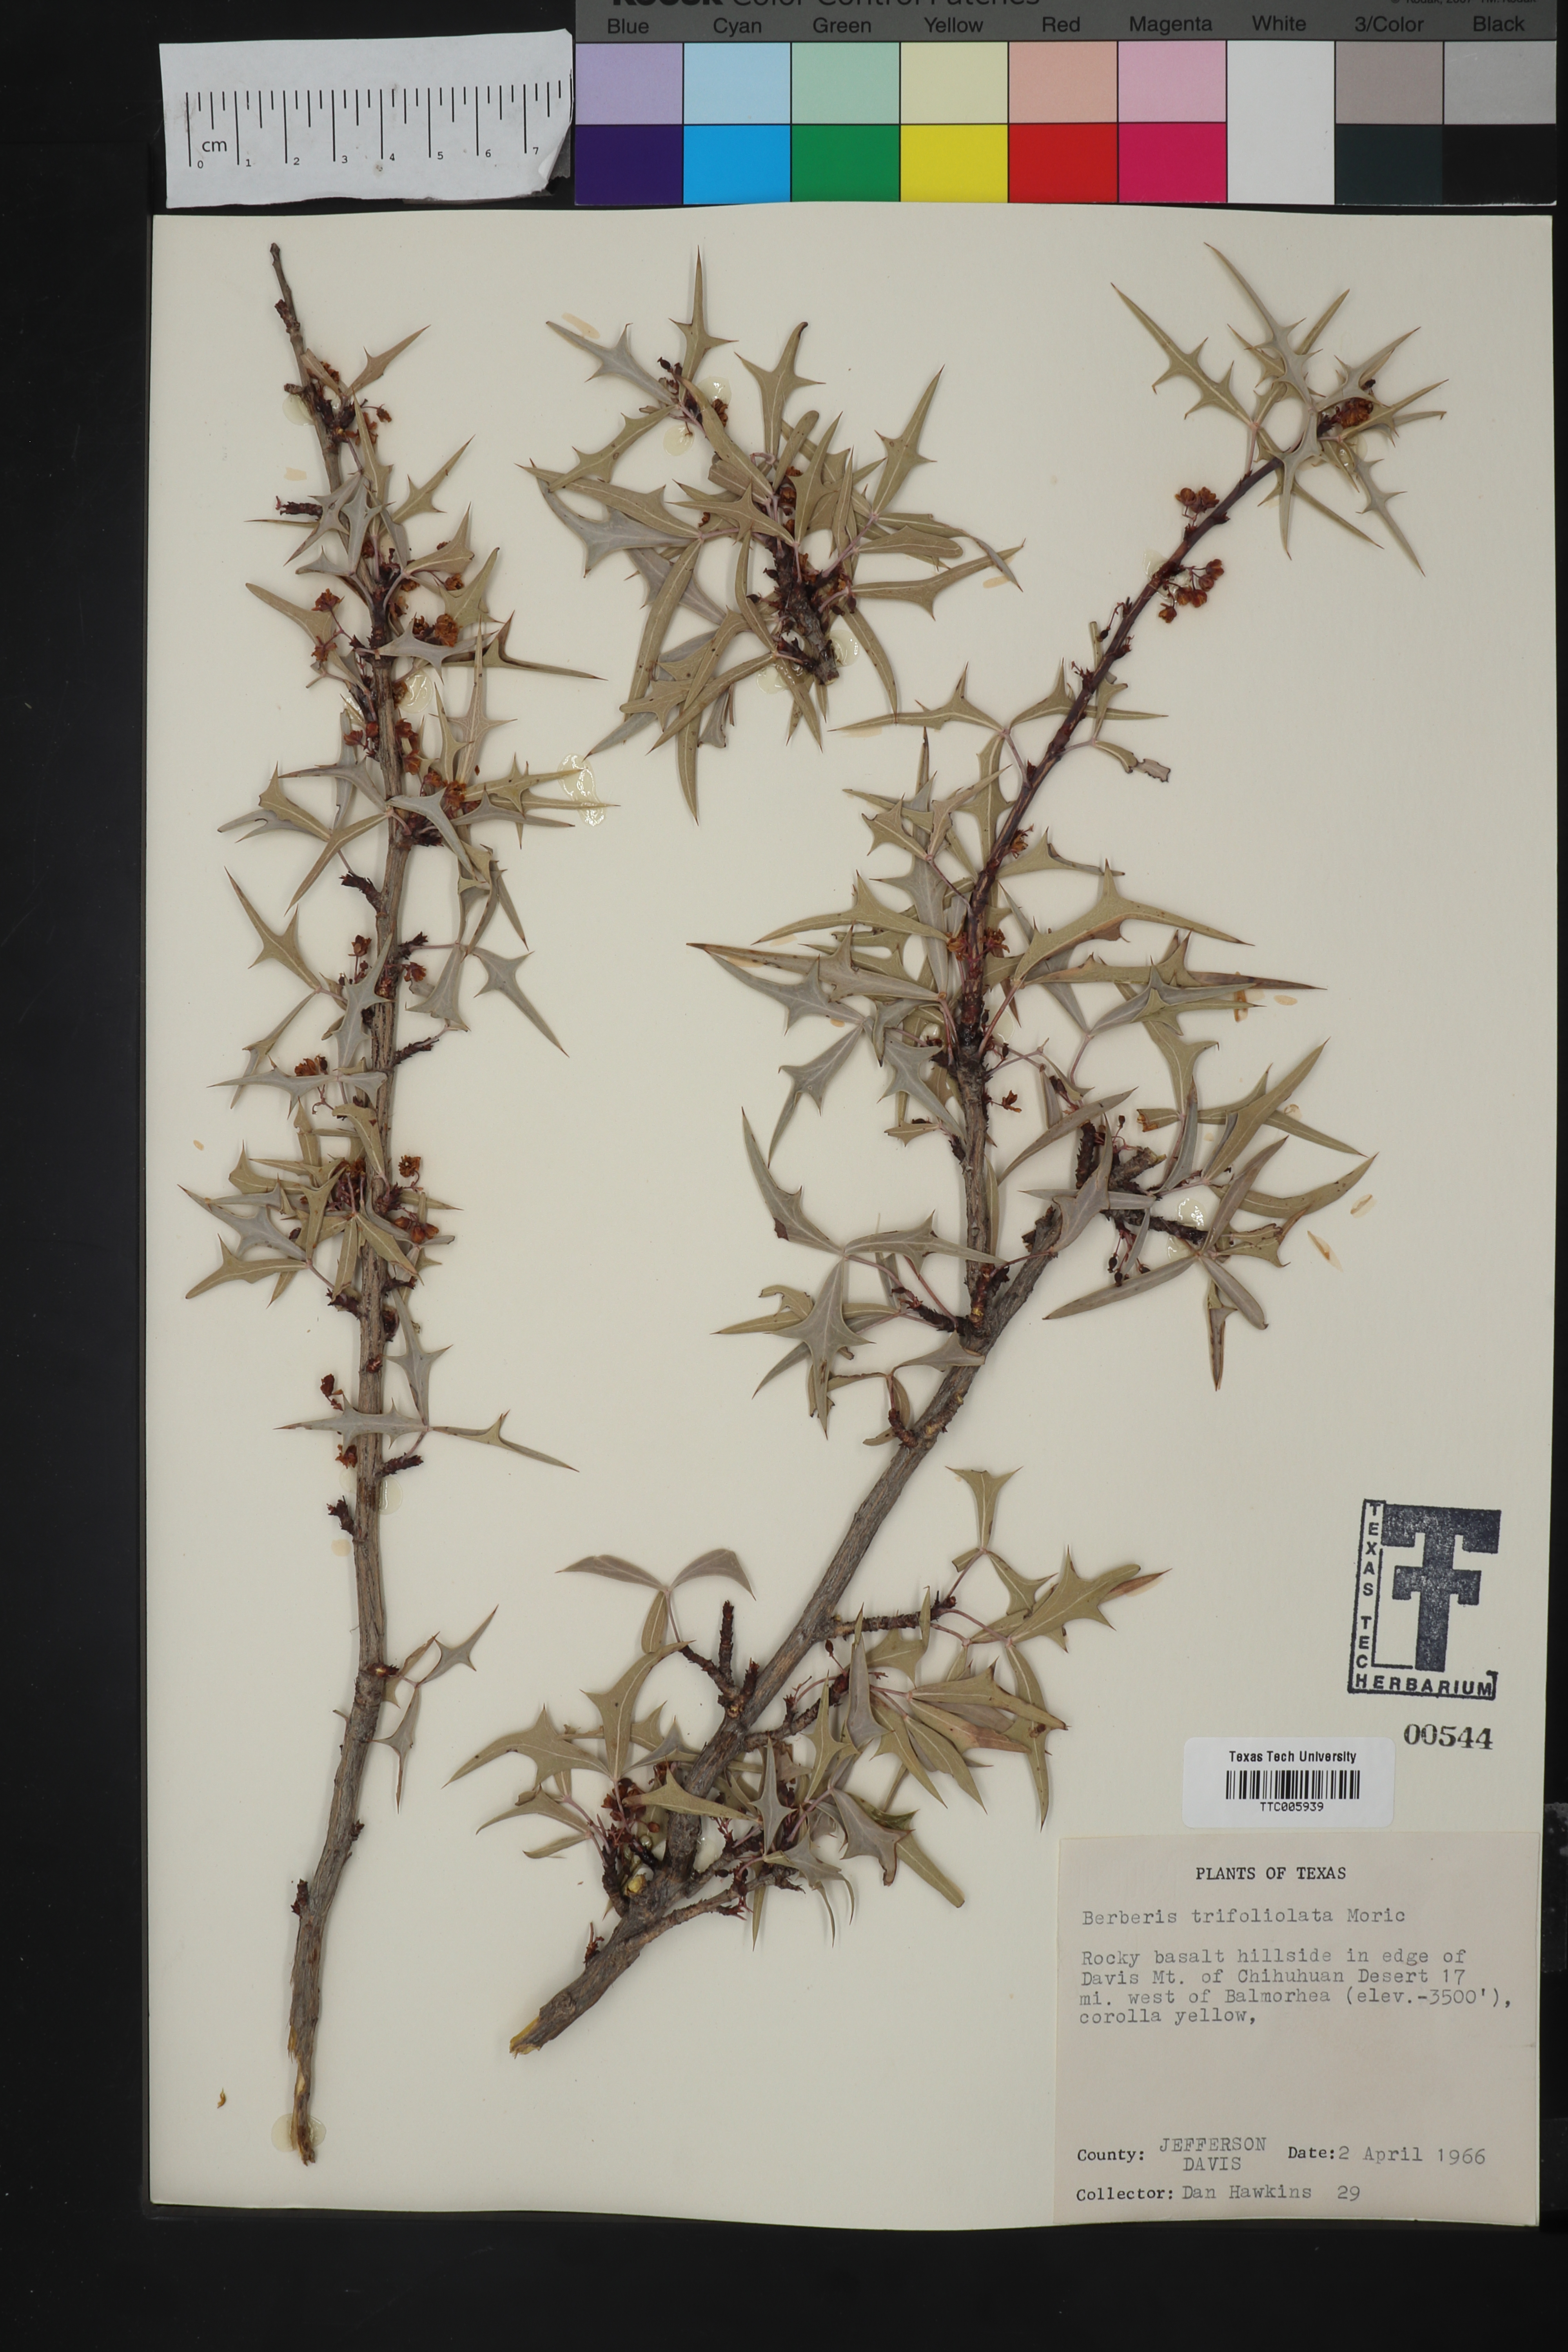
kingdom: Plantae
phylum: Tracheophyta
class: Magnoliopsida
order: Ranunculales
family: Berberidaceae
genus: Alloberberis
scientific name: Alloberberis trifoliolata
